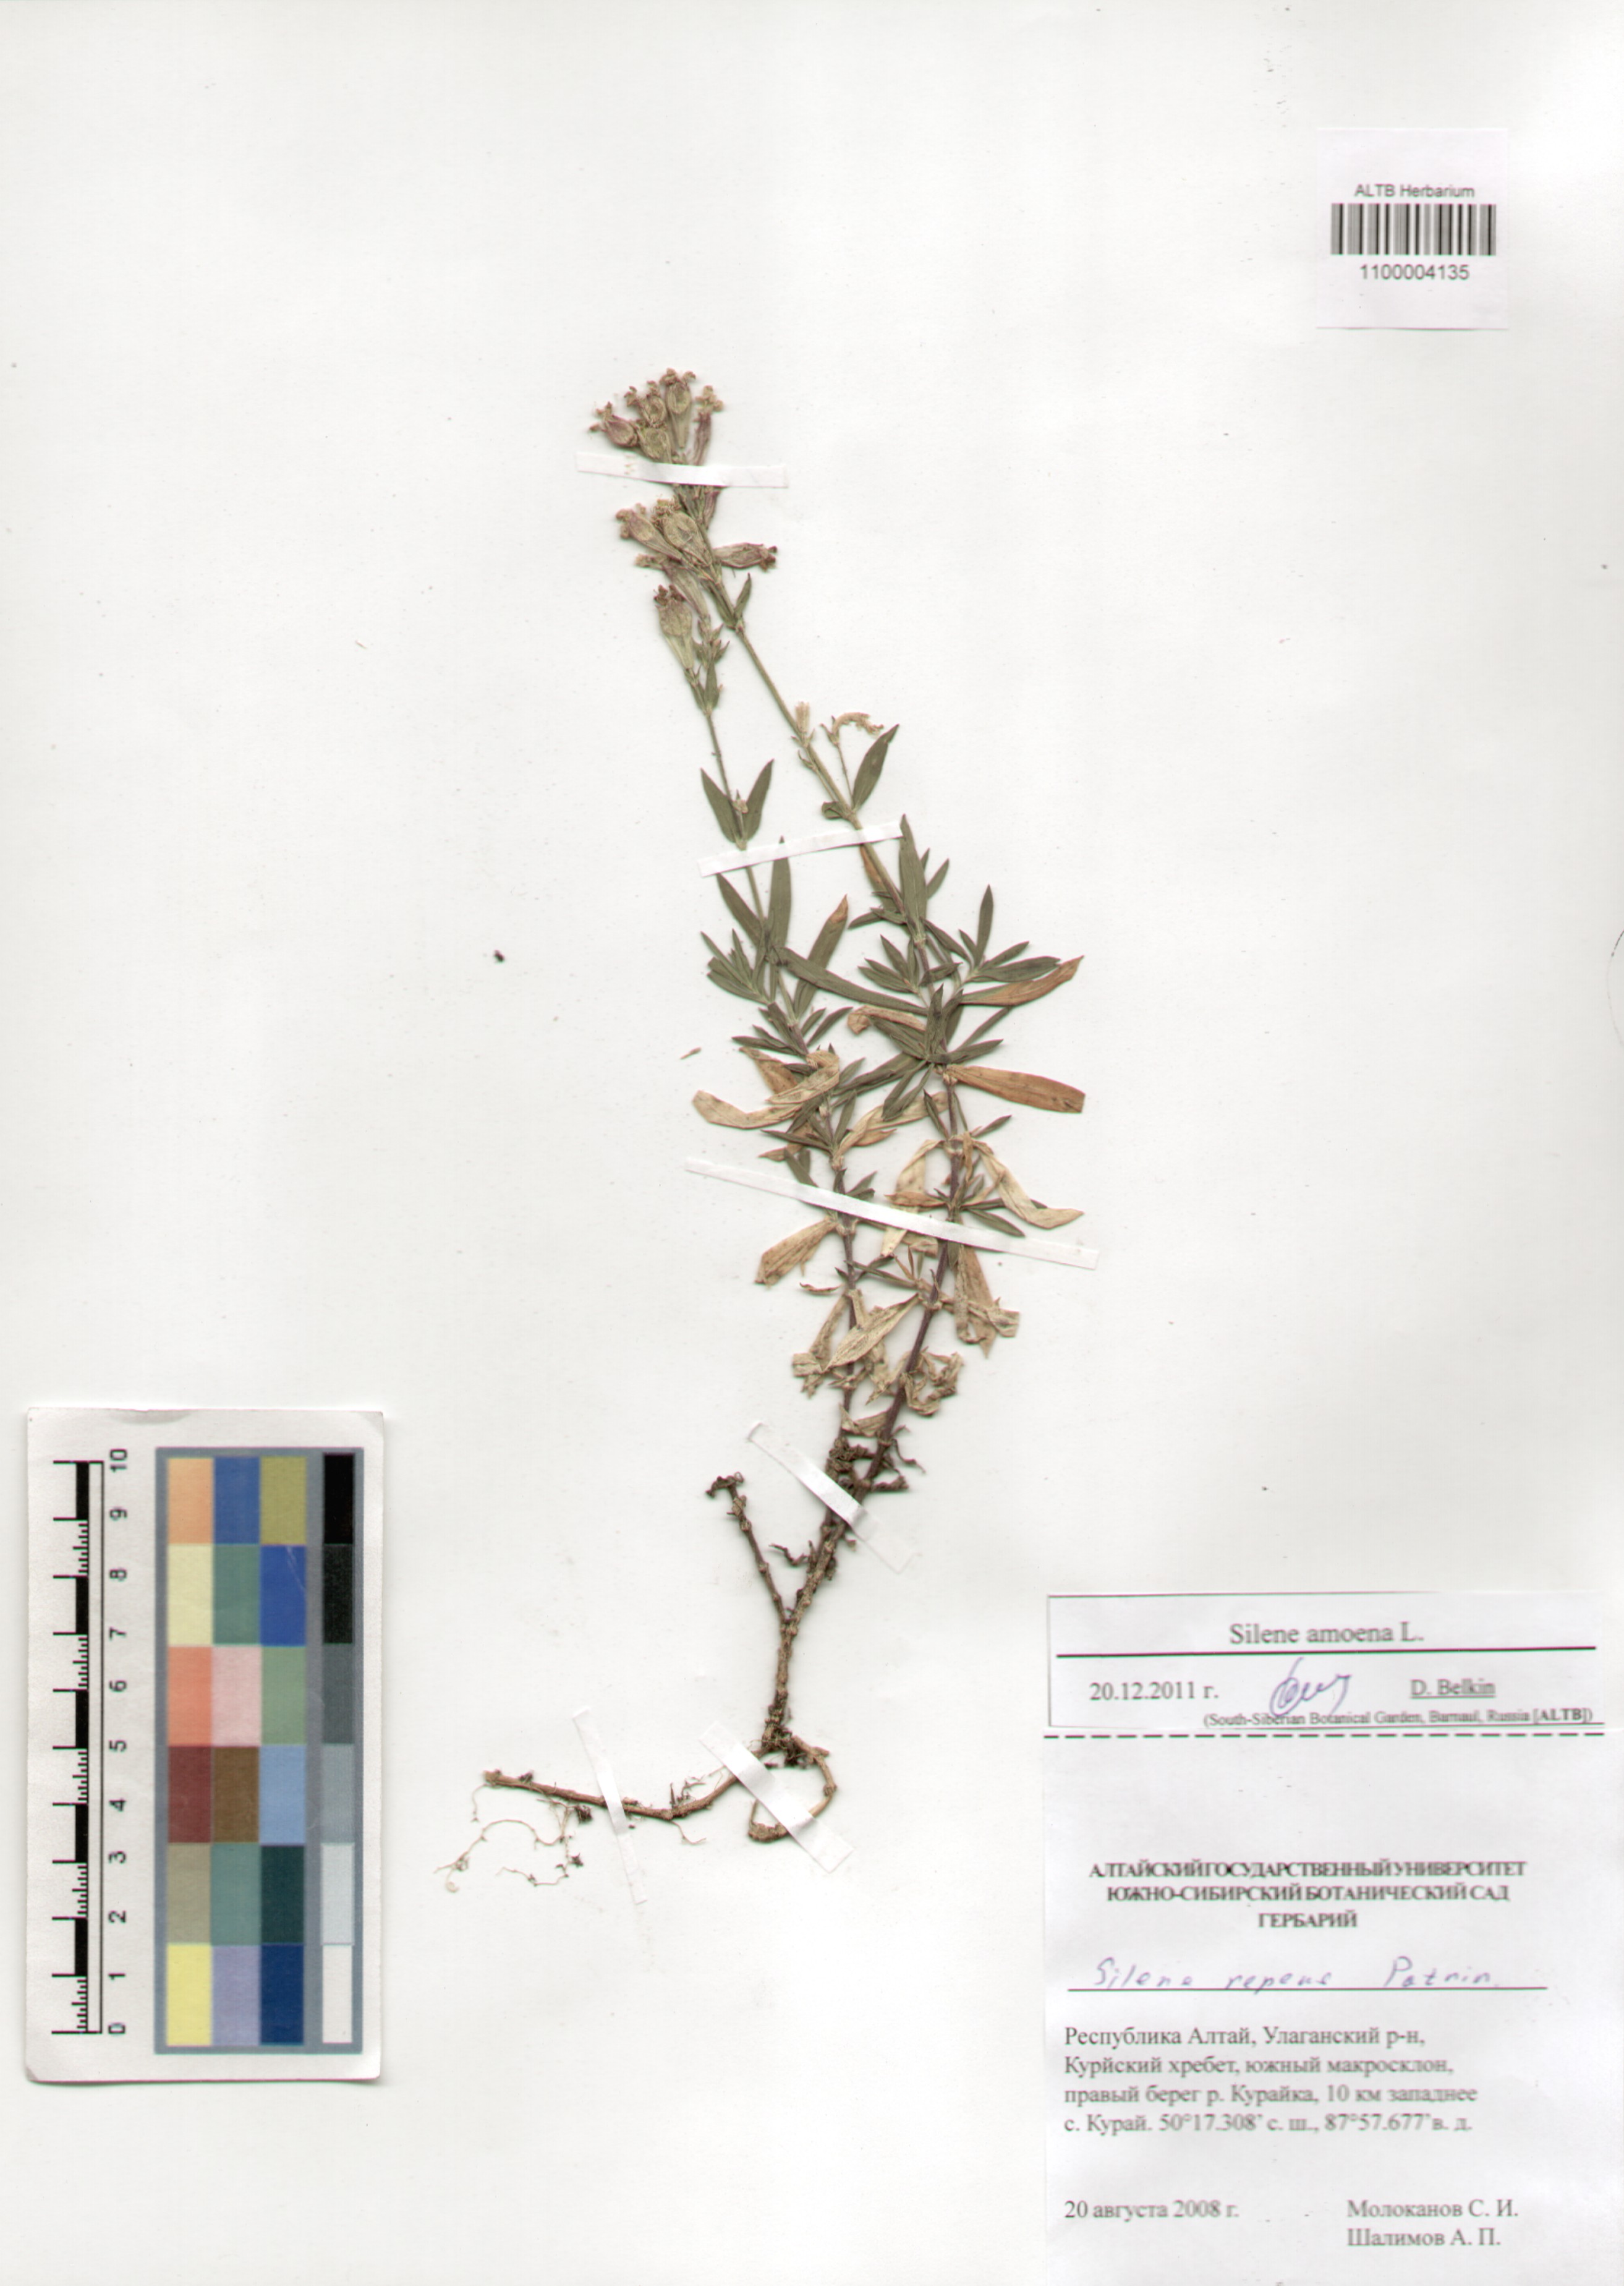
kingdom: Plantae
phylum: Tracheophyta
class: Magnoliopsida
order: Caryophyllales
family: Caryophyllaceae
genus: Silene
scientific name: Silene amoena
